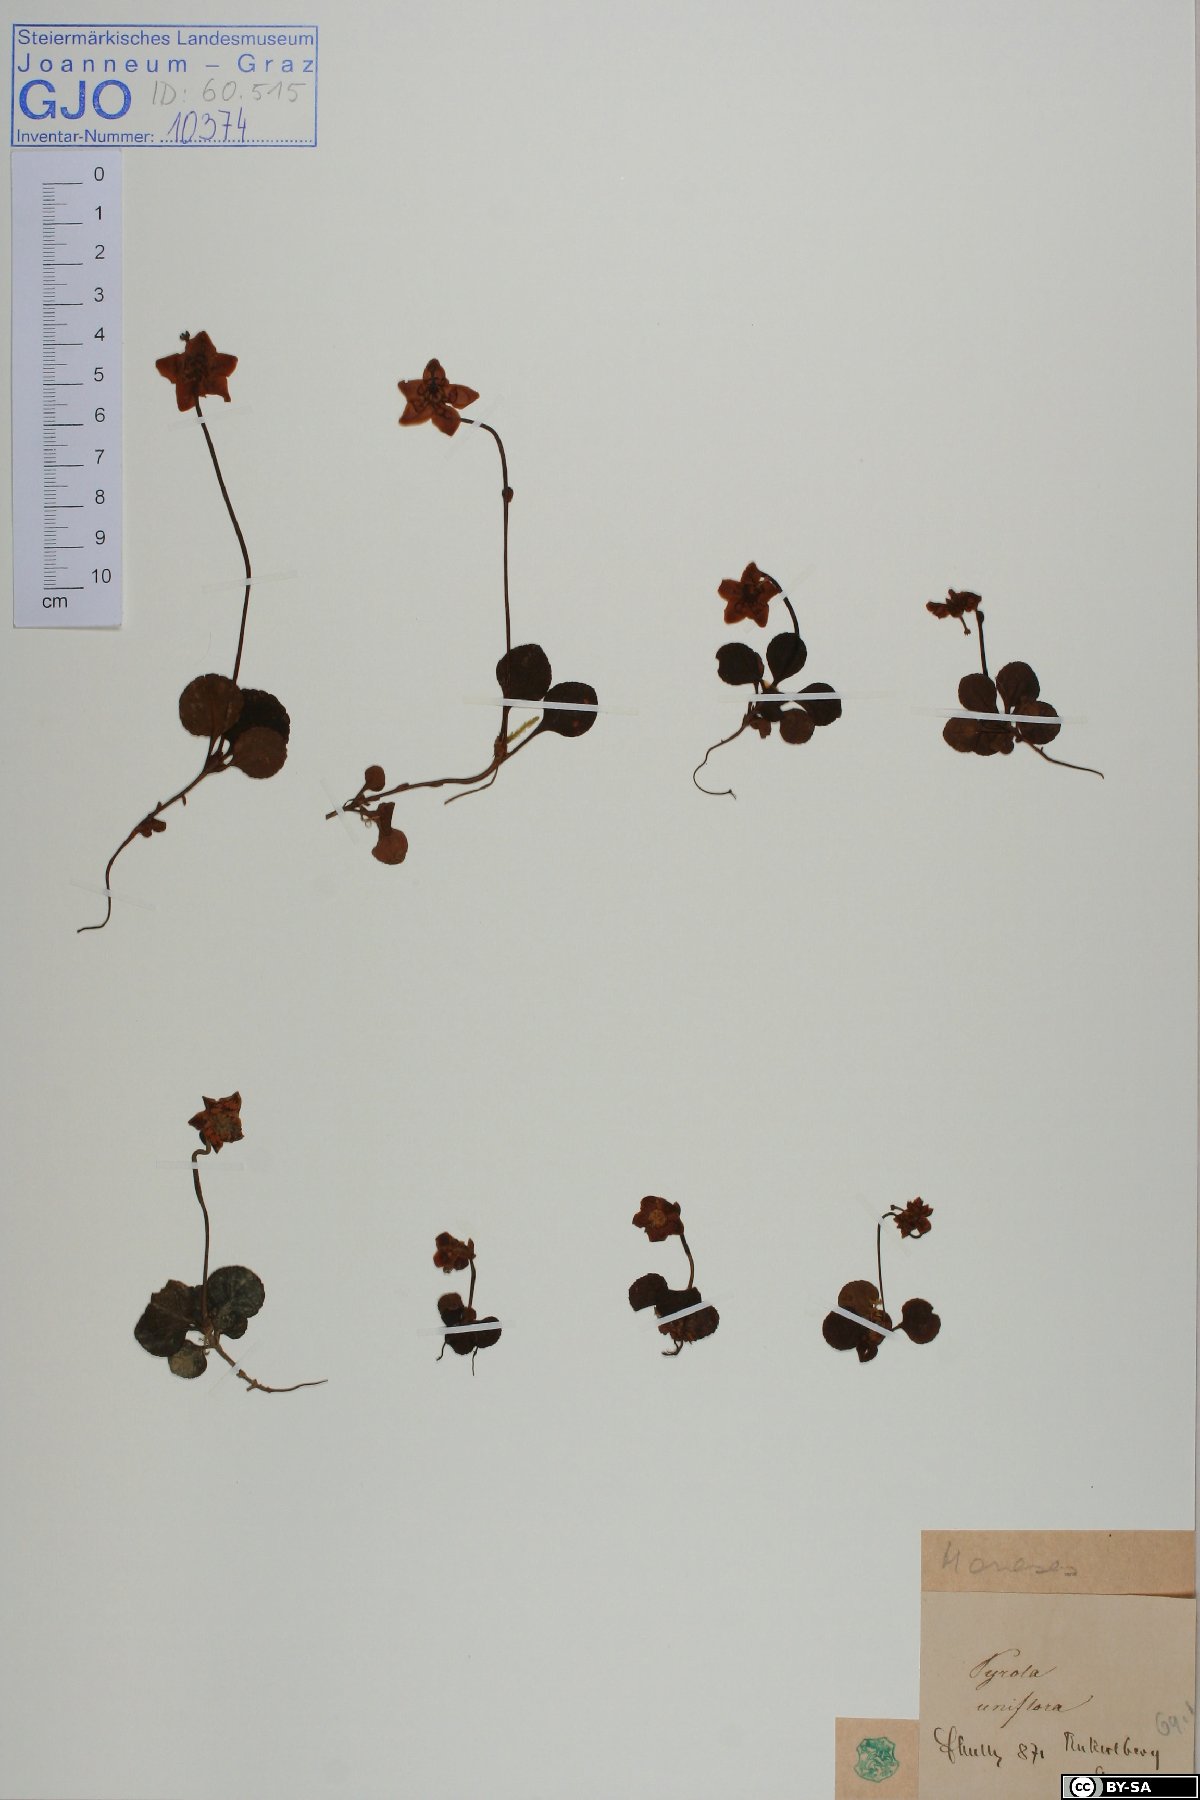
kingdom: Plantae
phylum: Tracheophyta
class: Magnoliopsida
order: Ericales
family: Ericaceae
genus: Moneses
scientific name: Moneses uniflora
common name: One-flowered wintergreen
